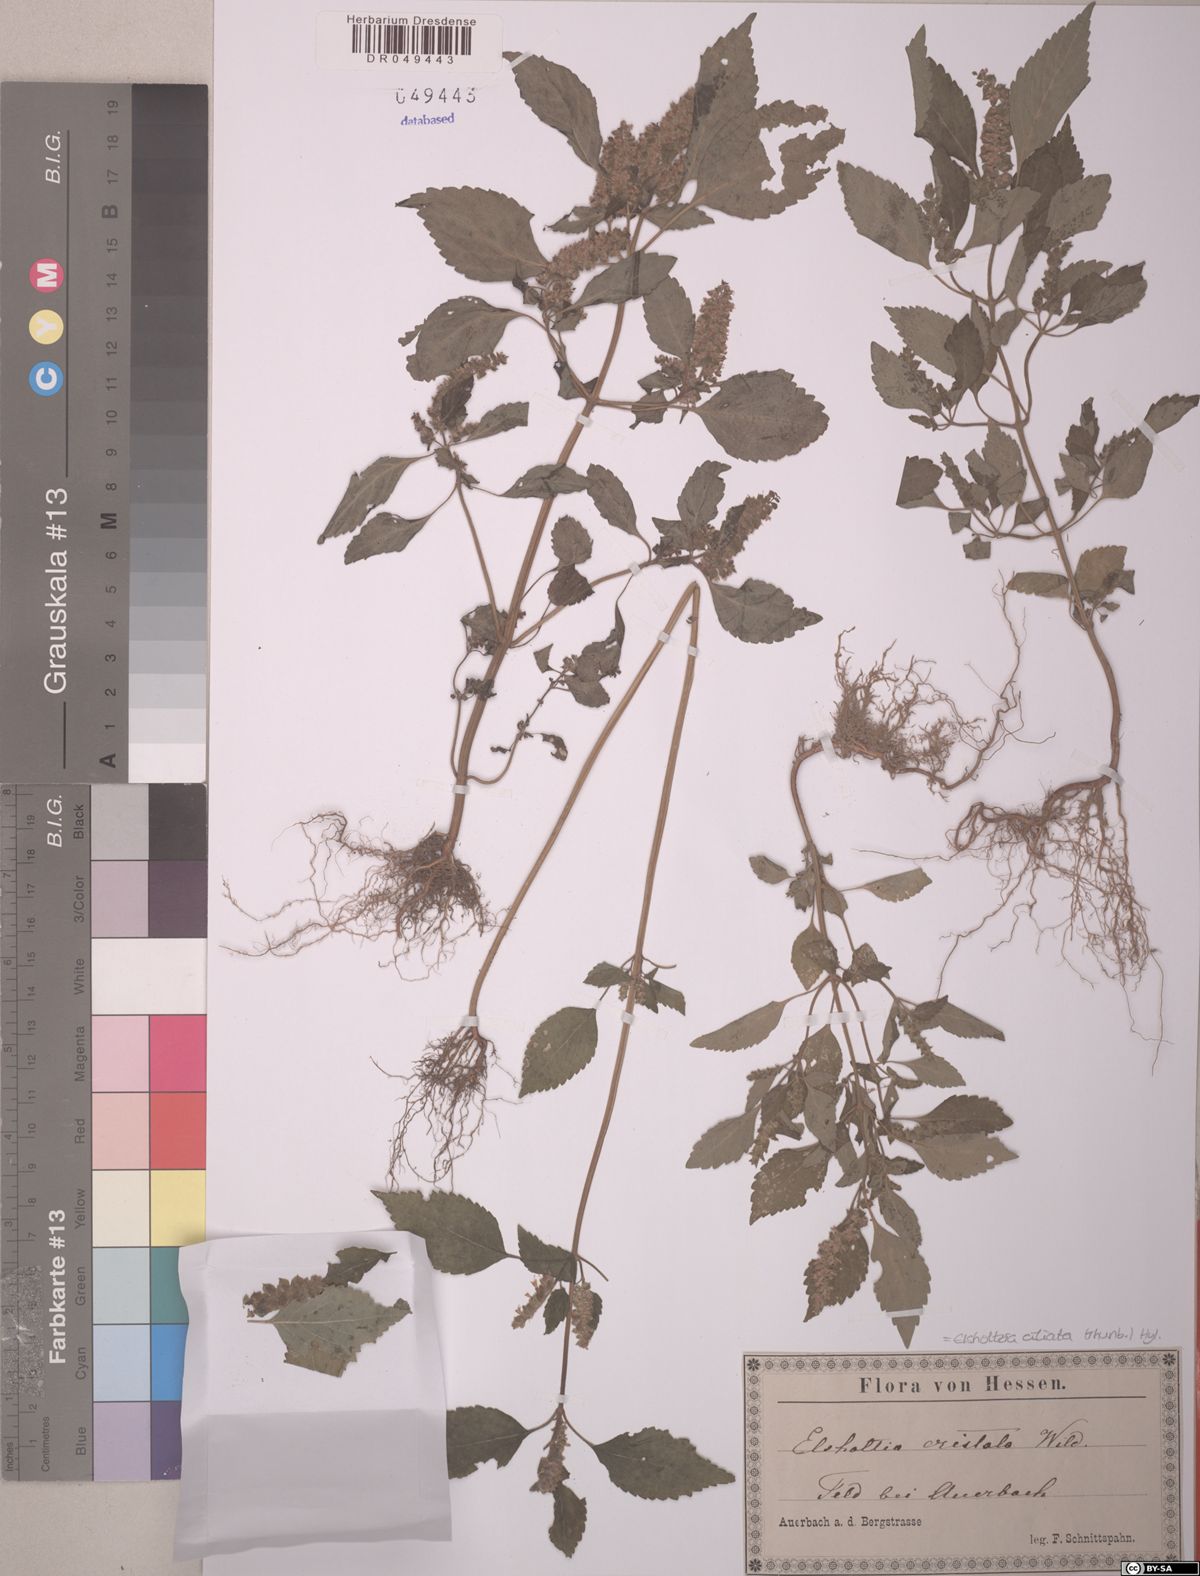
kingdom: Plantae
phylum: Tracheophyta
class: Magnoliopsida
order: Lamiales
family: Lamiaceae
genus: Elsholtzia
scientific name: Elsholtzia ciliata
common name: Ciliate elsholtzia
